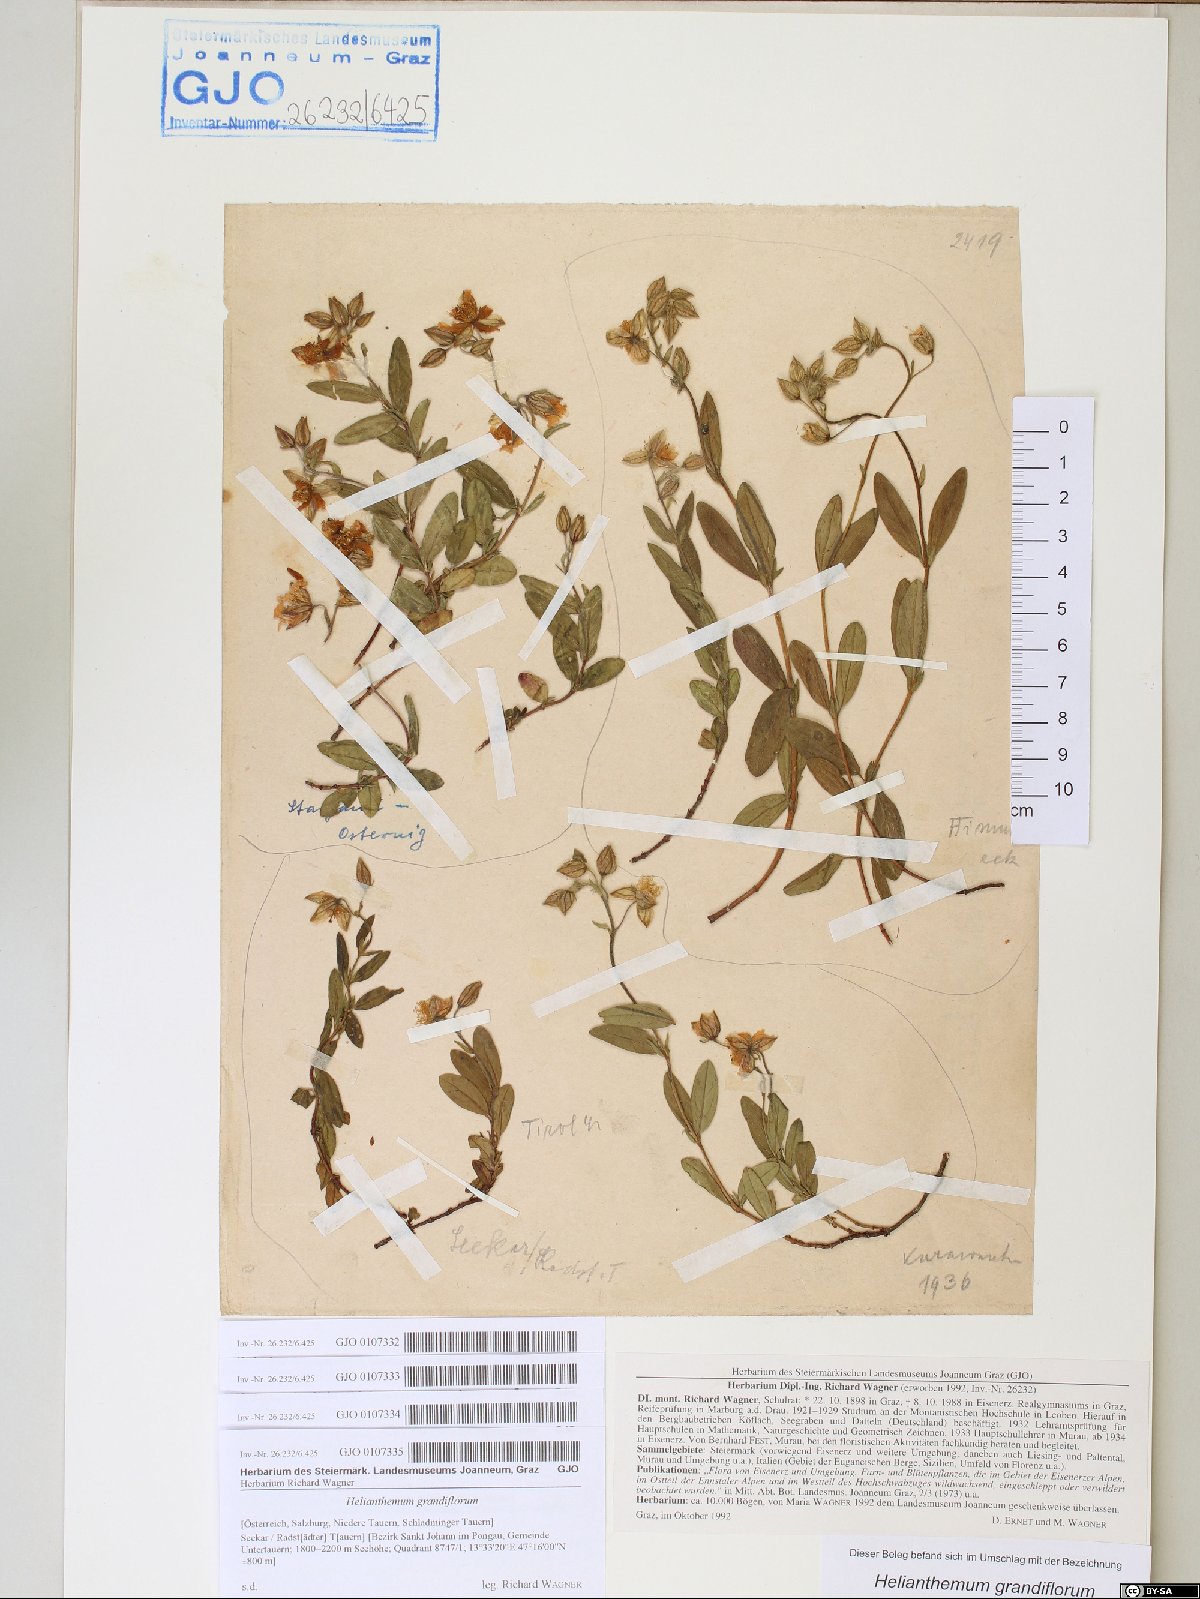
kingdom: Plantae
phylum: Tracheophyta
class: Magnoliopsida
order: Malvales
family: Cistaceae
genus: Helianthemum
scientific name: Helianthemum nummularium
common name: Common rock-rose
